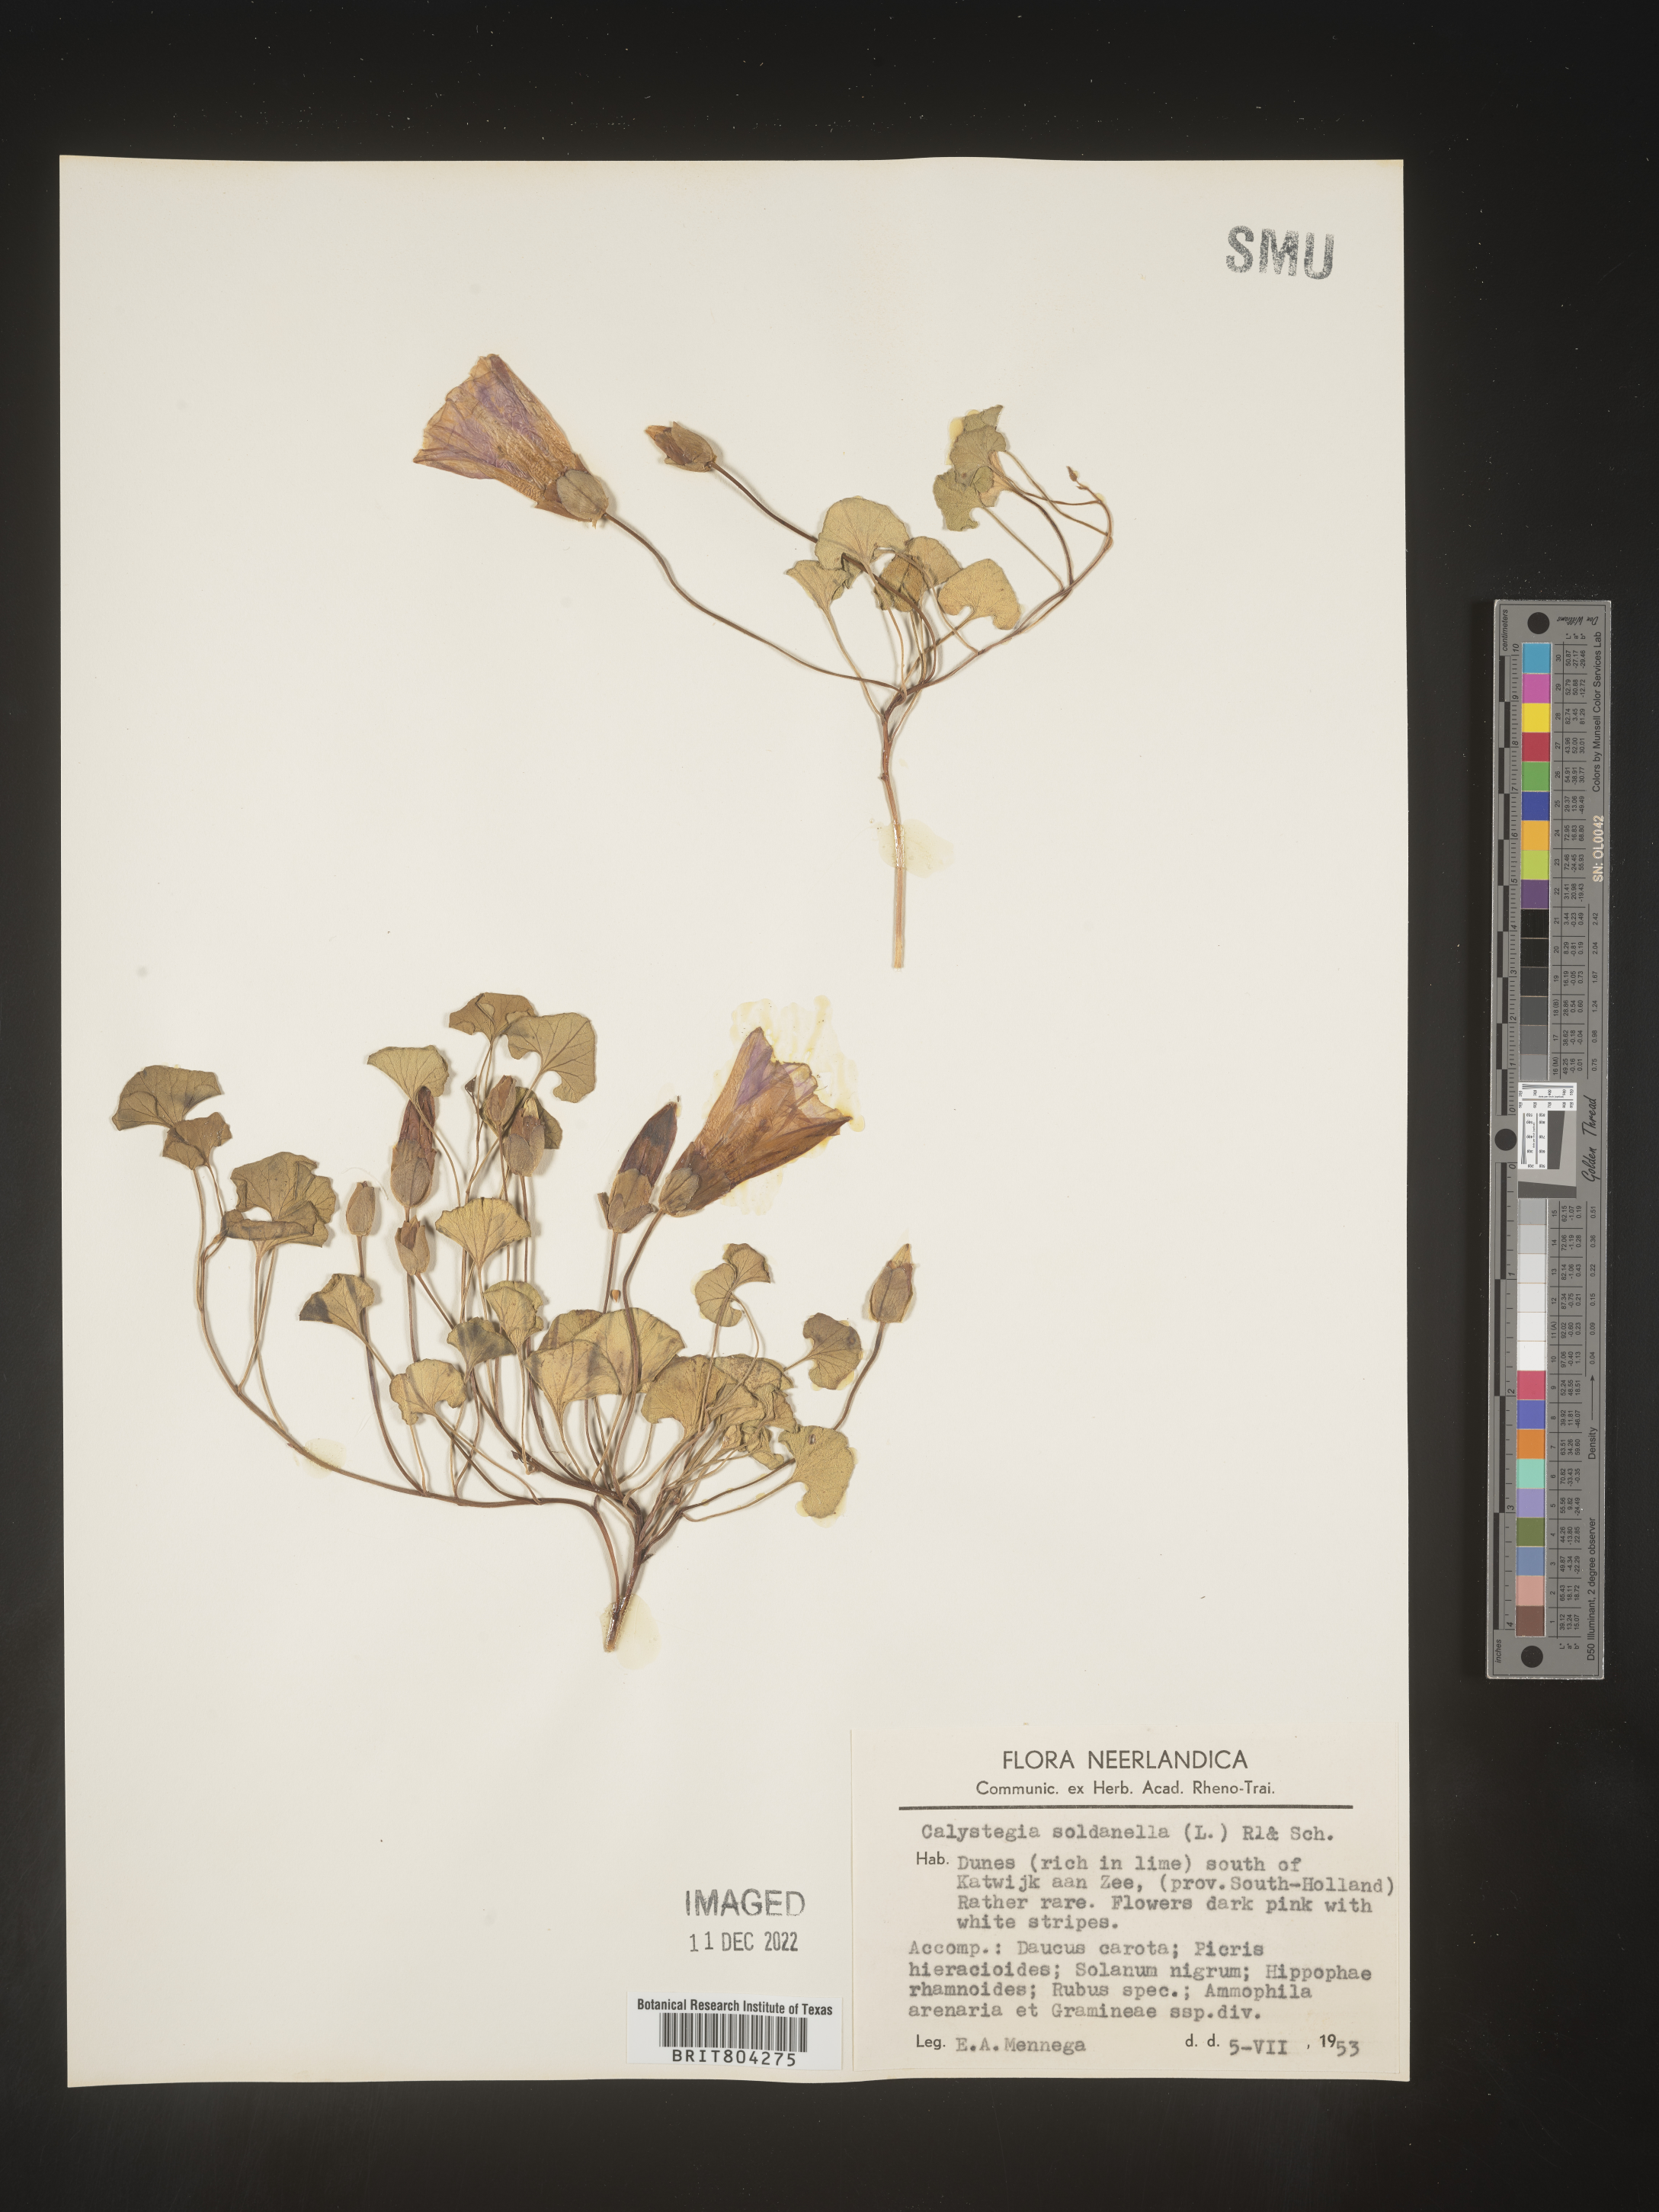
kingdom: Plantae
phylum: Tracheophyta
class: Magnoliopsida
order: Solanales
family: Convolvulaceae
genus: Calystegia
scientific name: Calystegia
